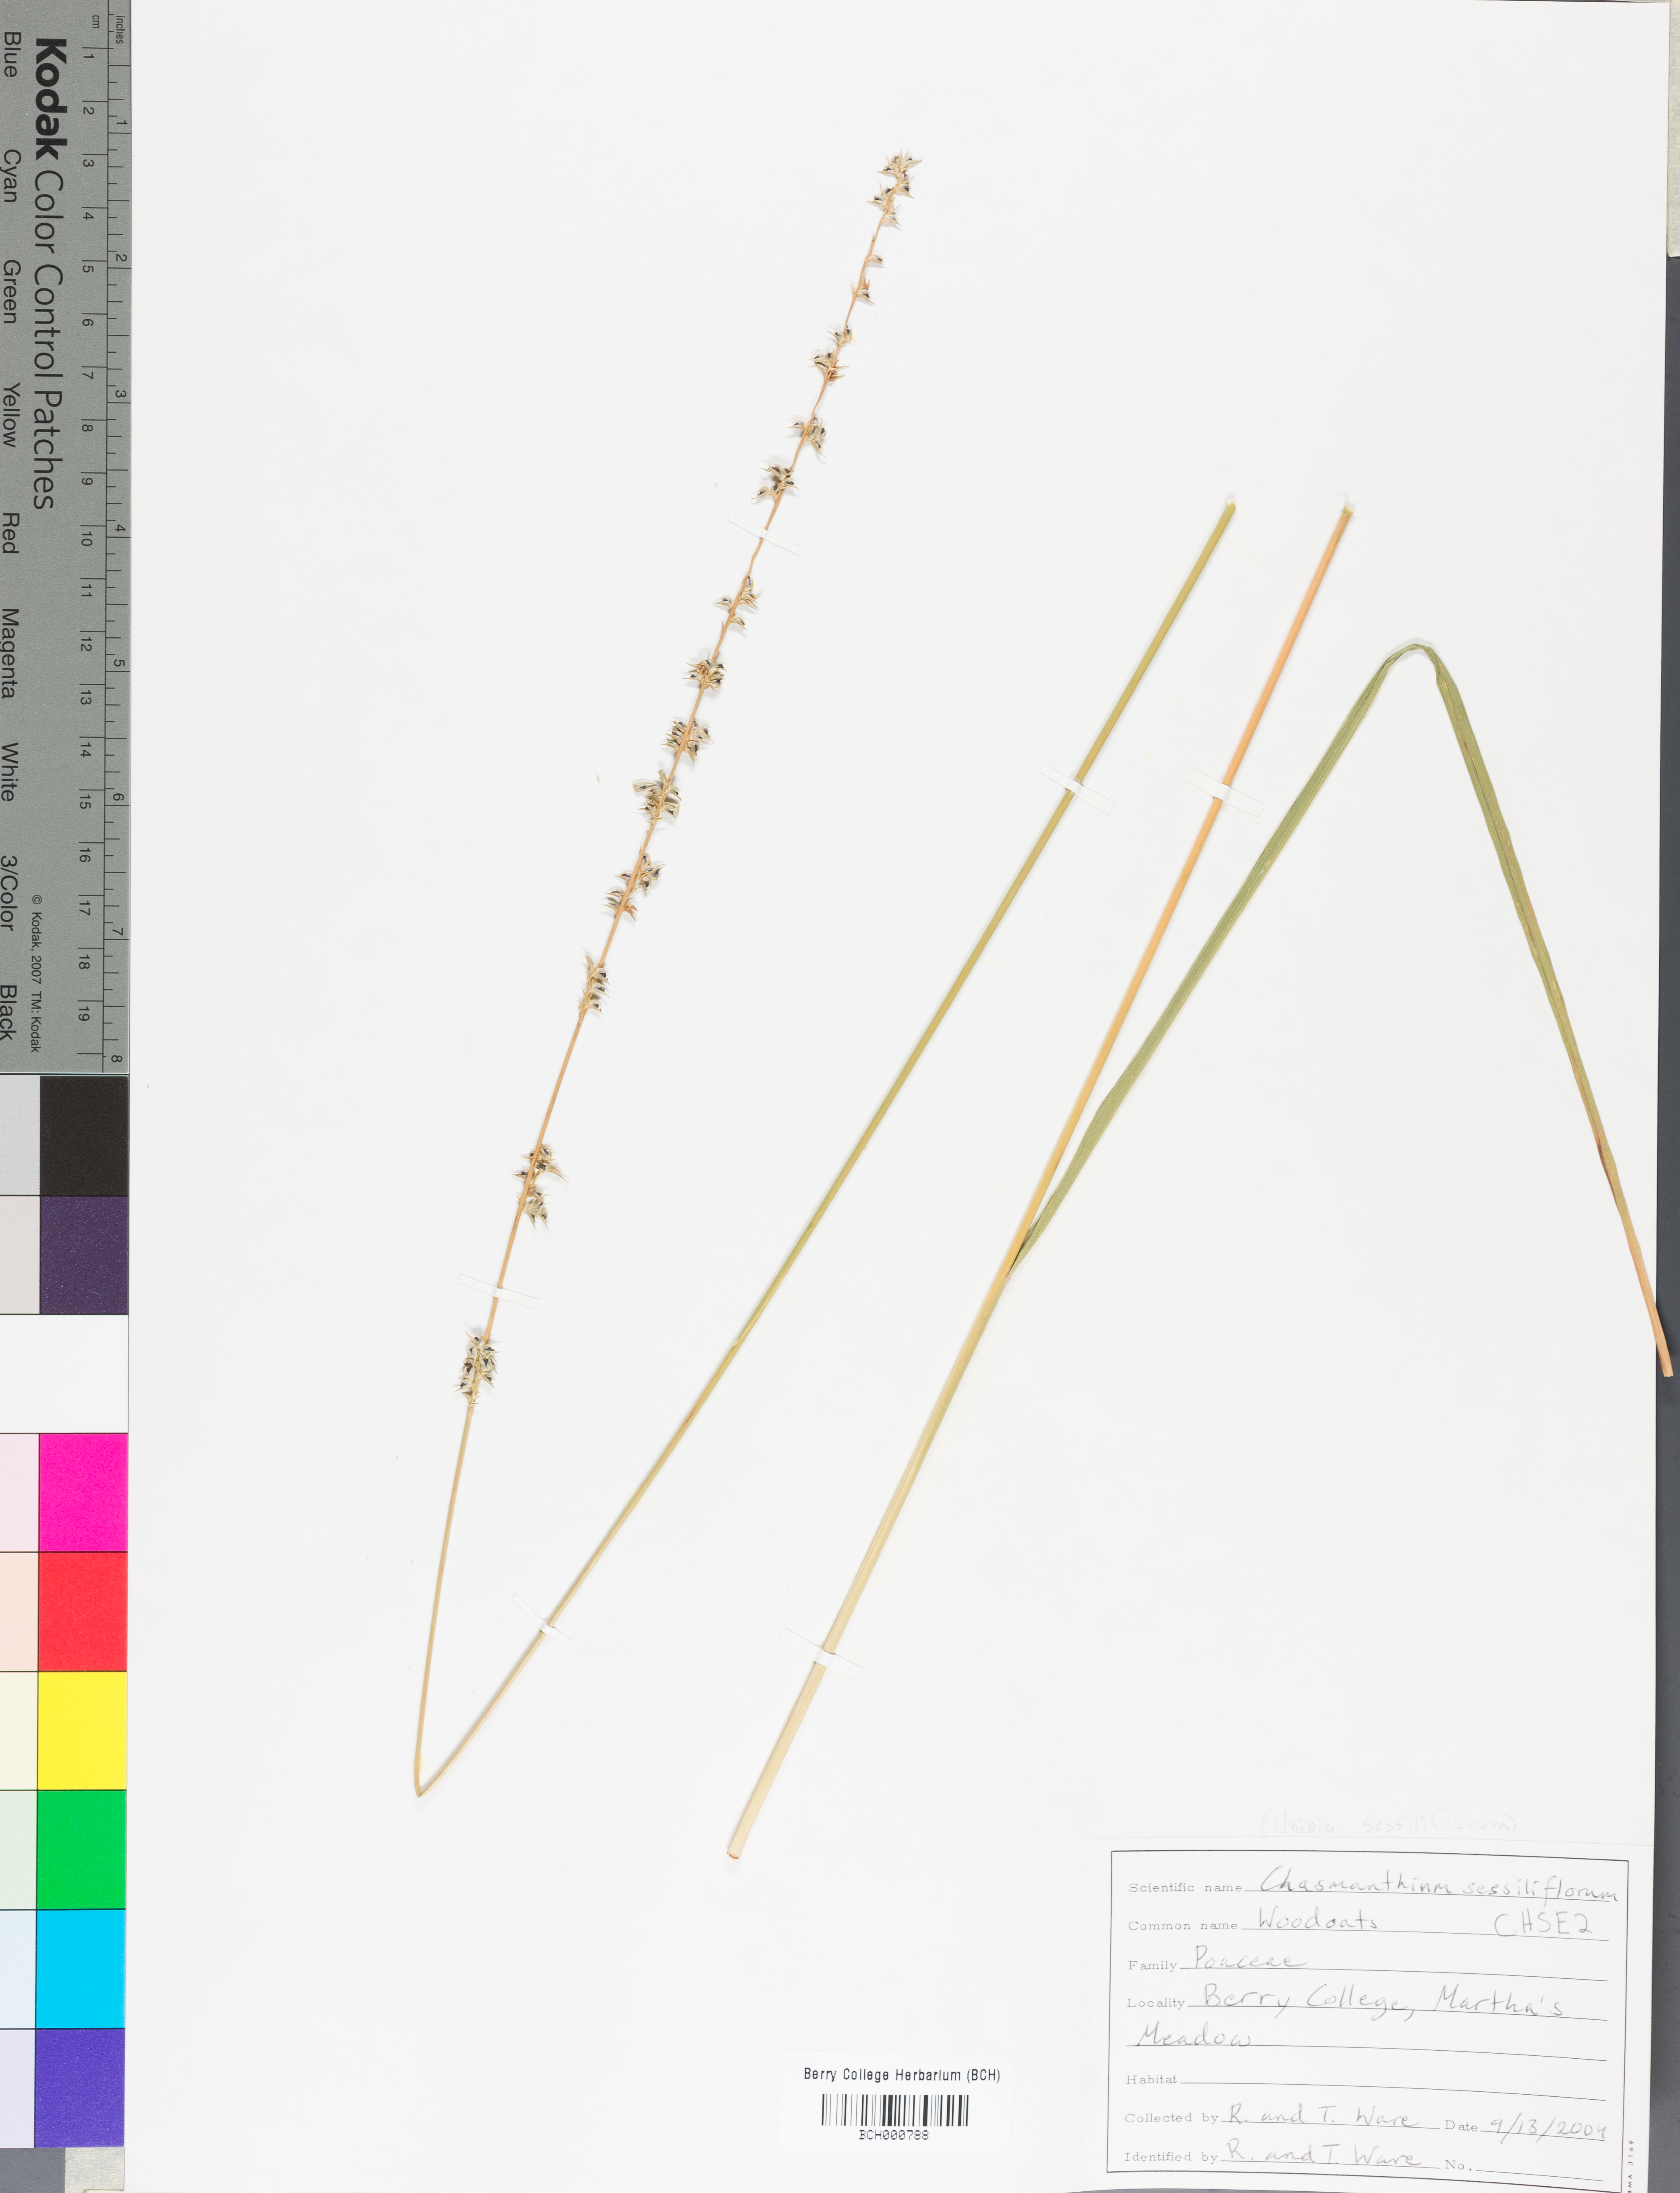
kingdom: Plantae
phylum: Tracheophyta
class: Liliopsida
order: Poales
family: Poaceae
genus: Chasmanthium
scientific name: Chasmanthium laxum
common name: Slender chasmanthium
